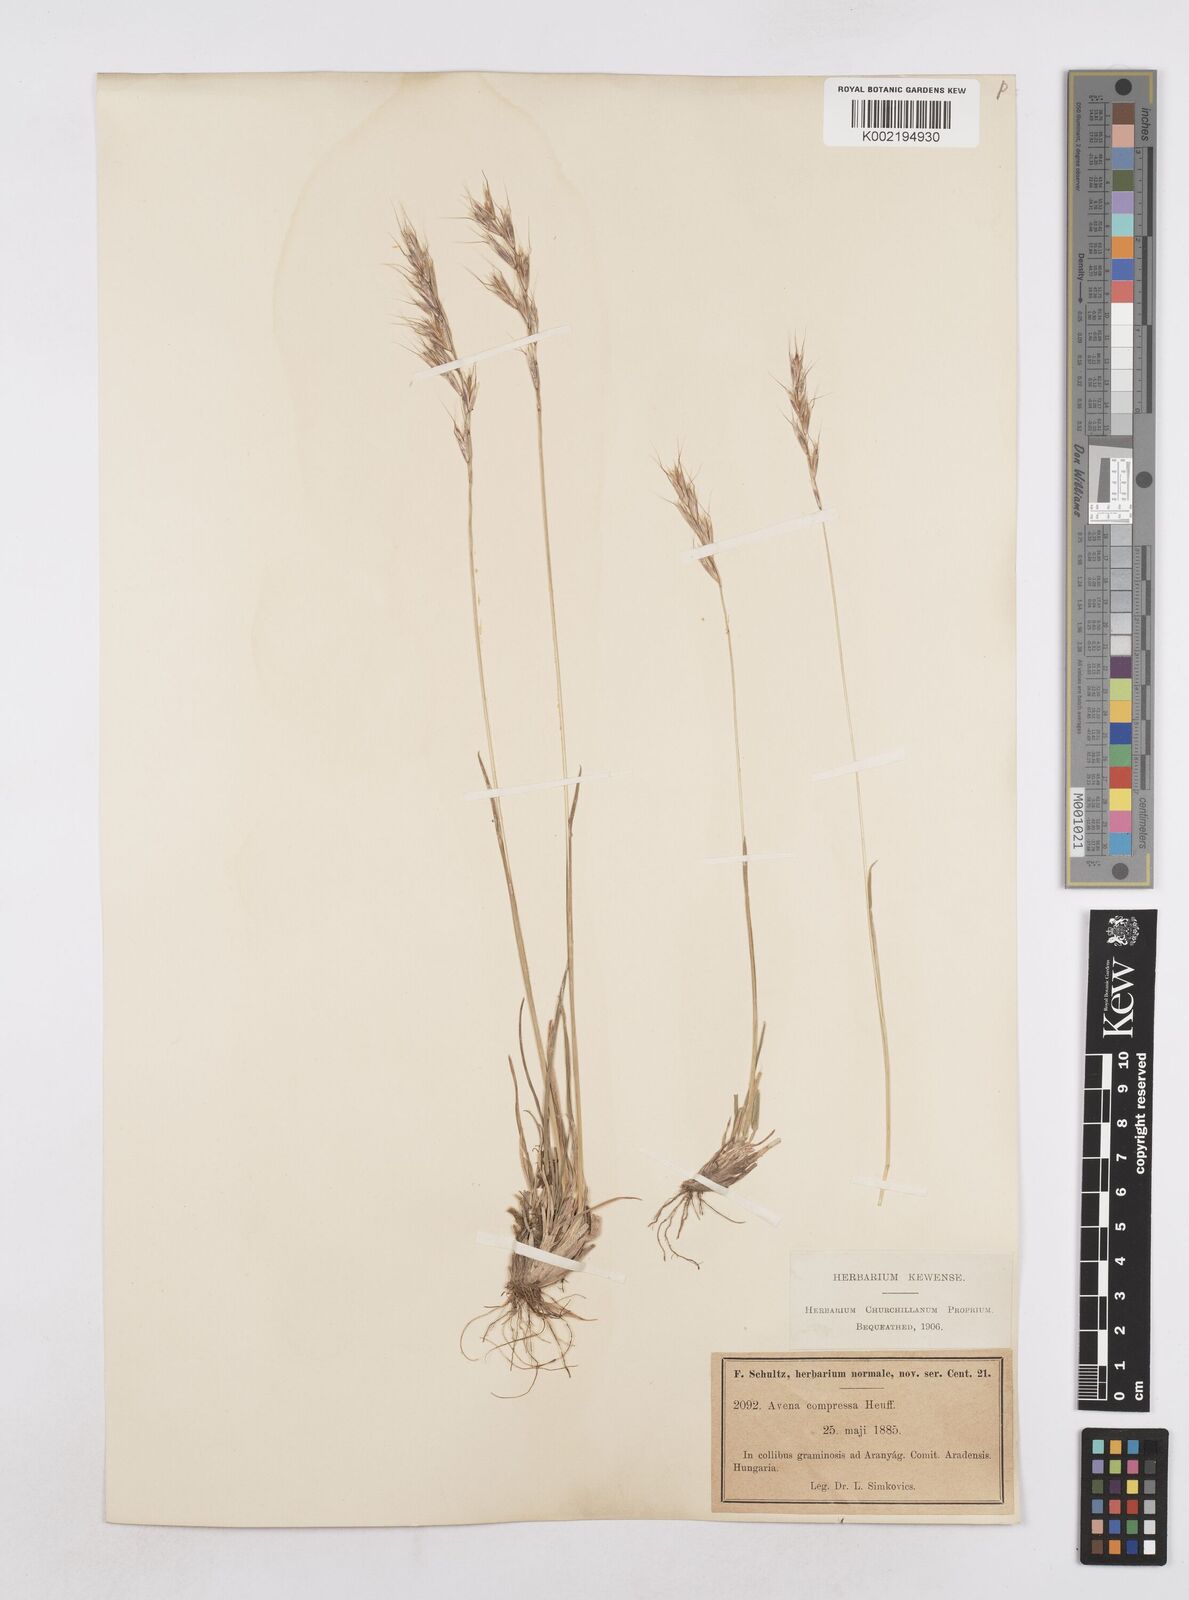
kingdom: Plantae
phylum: Tracheophyta
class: Liliopsida
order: Poales
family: Poaceae
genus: Helictochloa
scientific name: Helictochloa compressa
